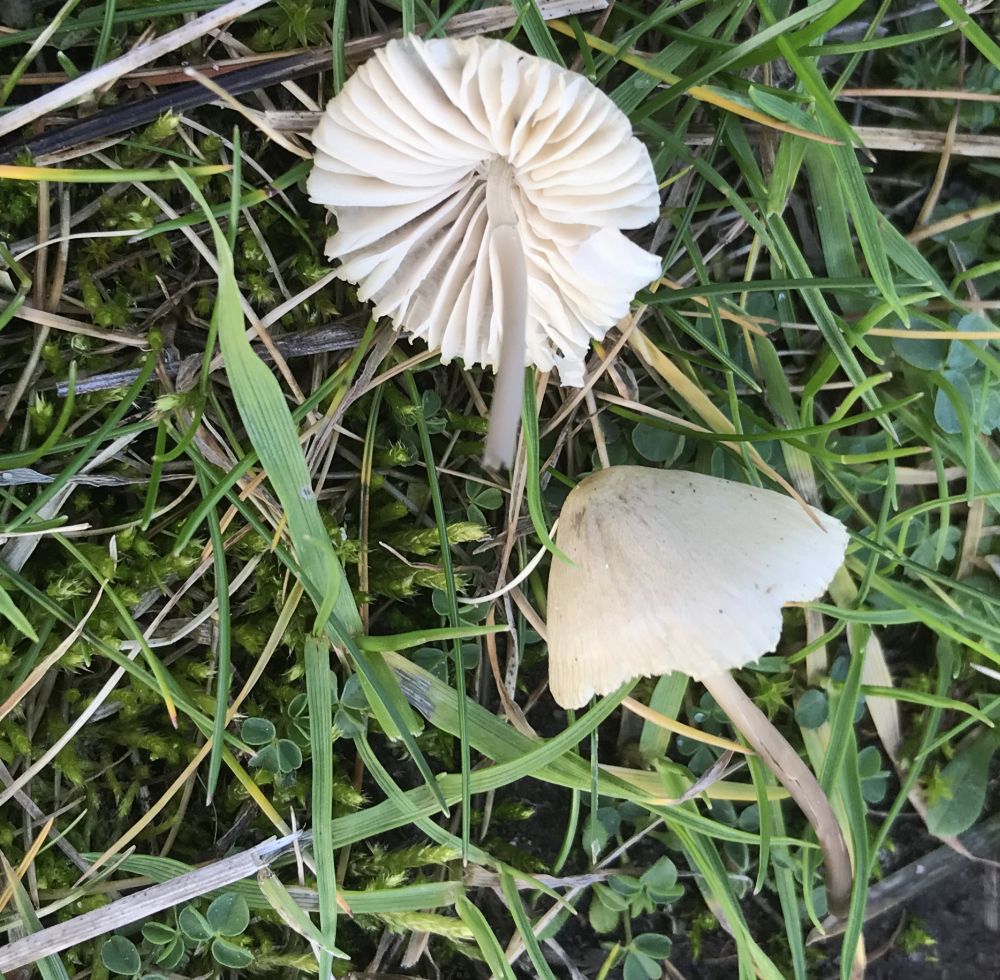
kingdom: Fungi
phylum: Basidiomycota
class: Agaricomycetes
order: Agaricales
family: Mycenaceae
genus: Mycena
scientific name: Mycena flavescens
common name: grågul huesvamp
